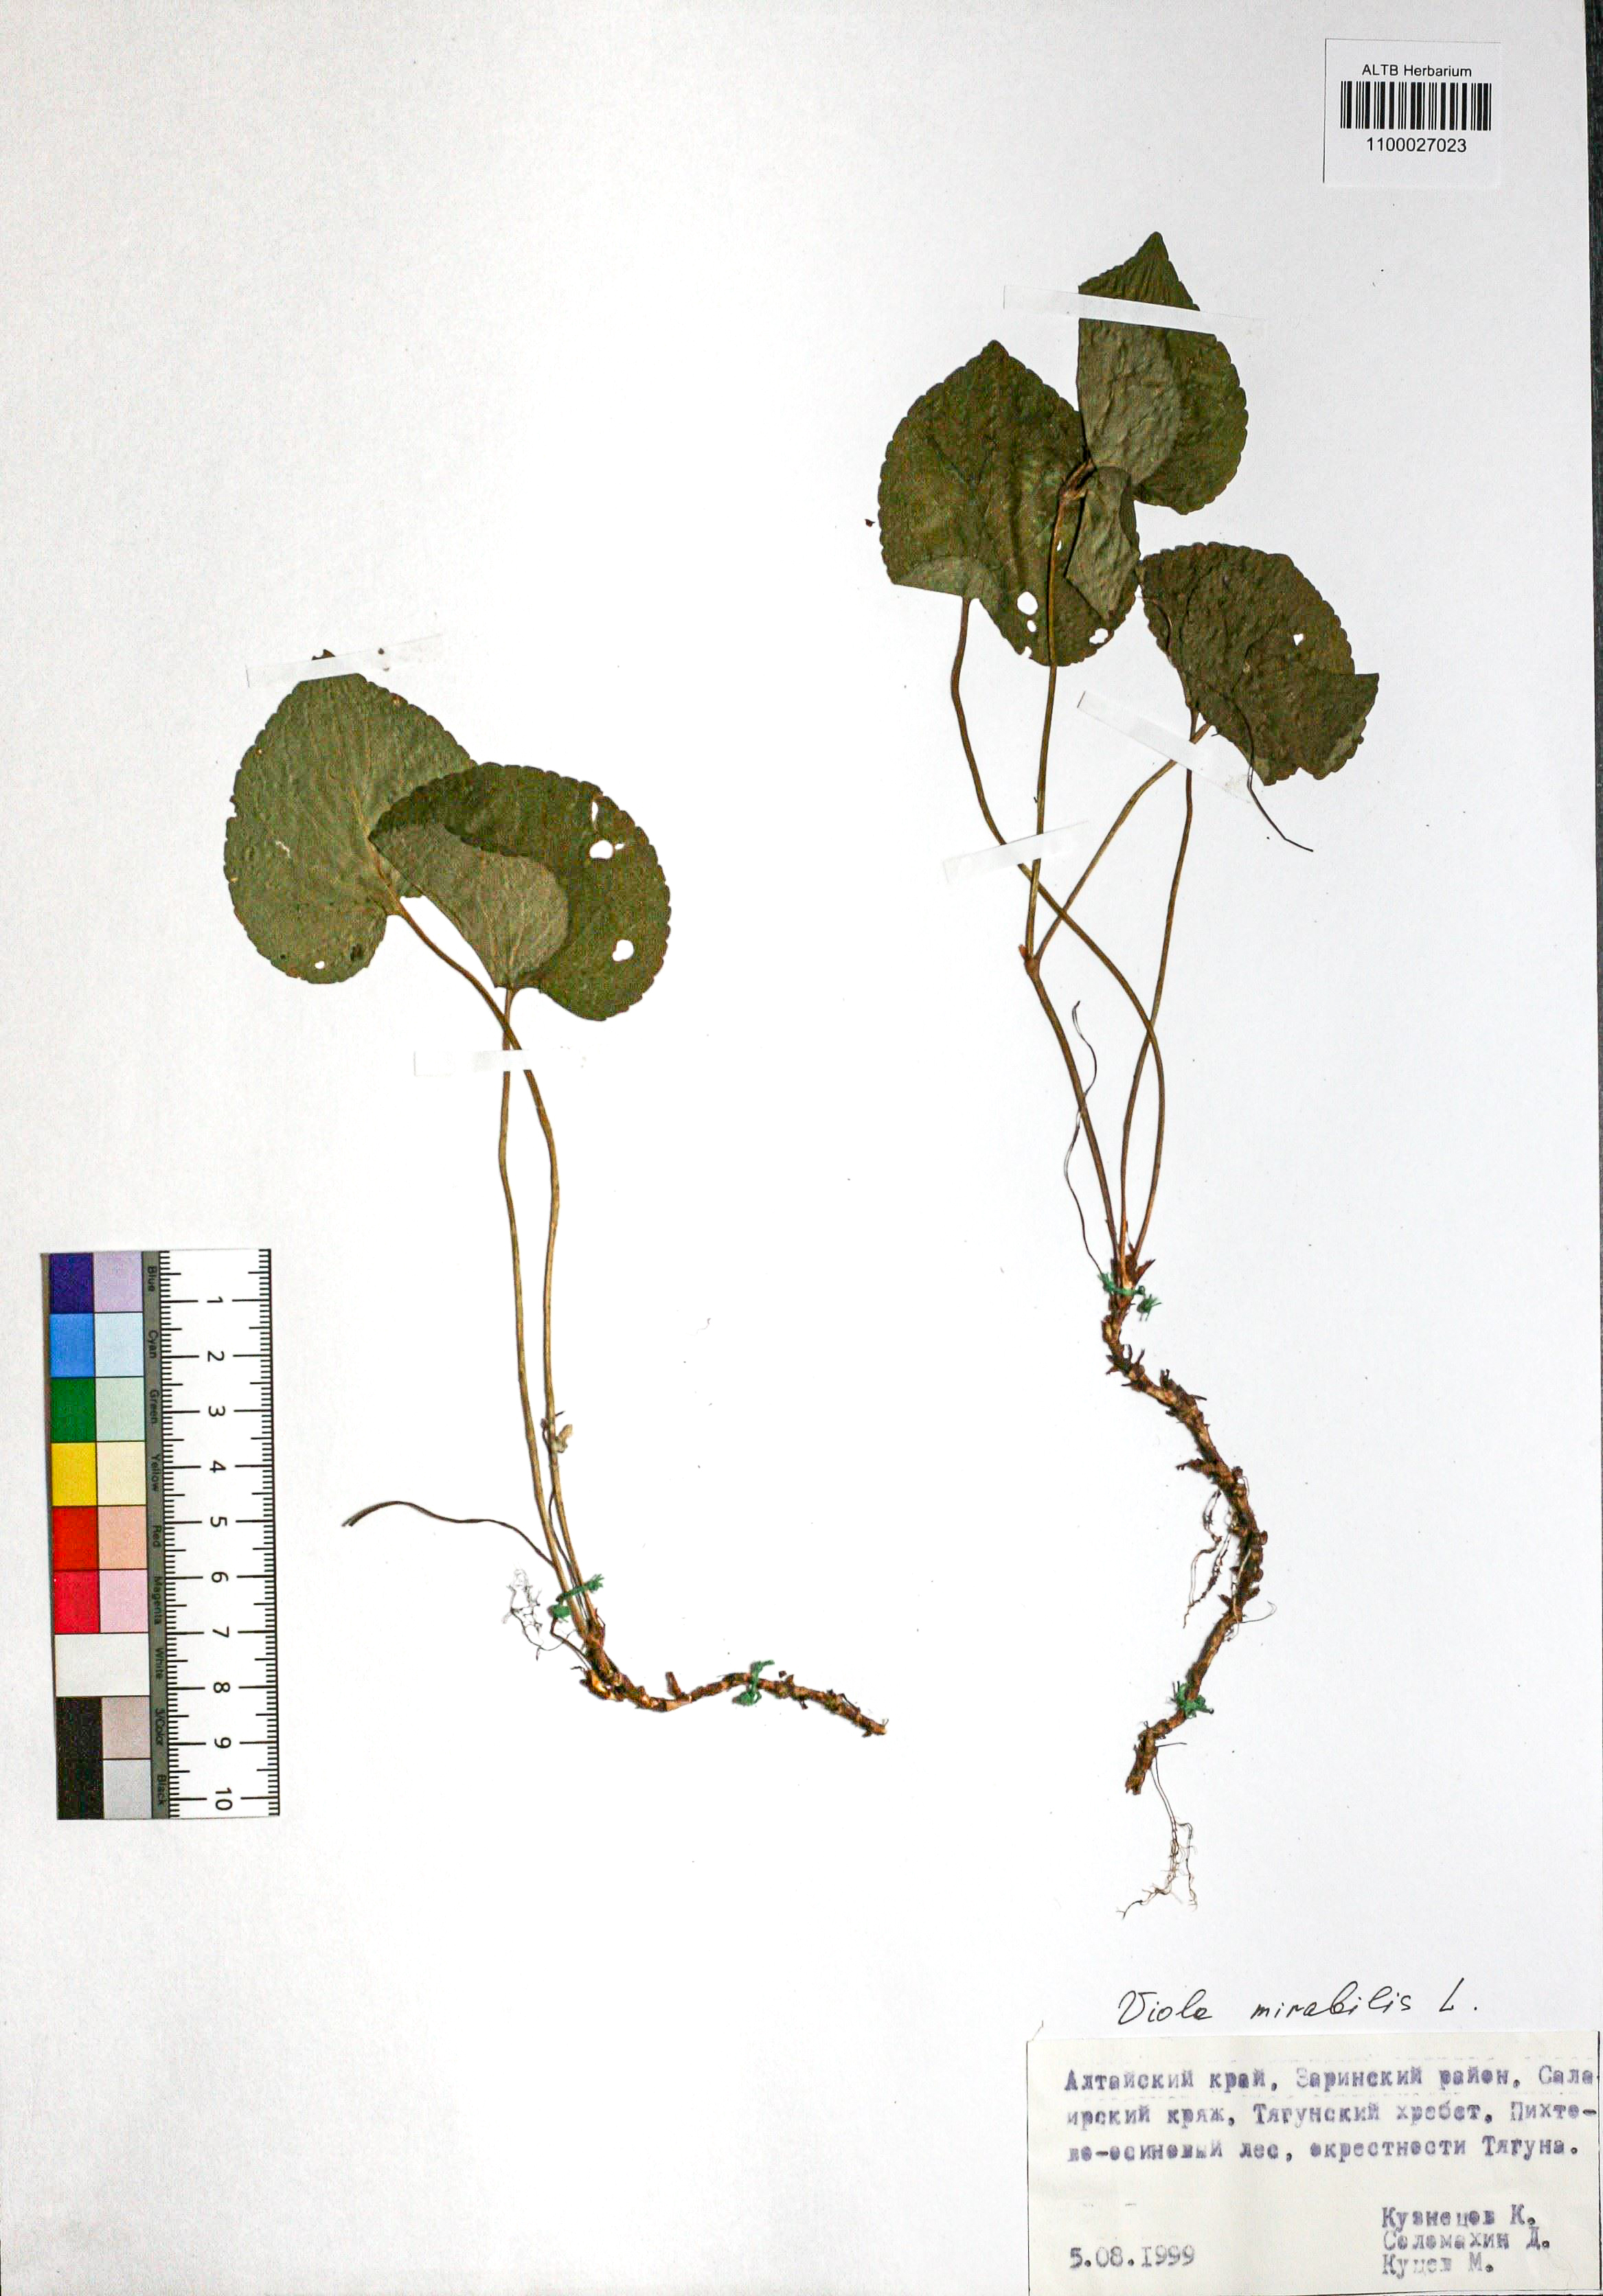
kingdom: Plantae
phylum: Tracheophyta
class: Magnoliopsida
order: Malpighiales
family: Violaceae
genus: Viola
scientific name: Viola mirabilis
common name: Wonder violet
